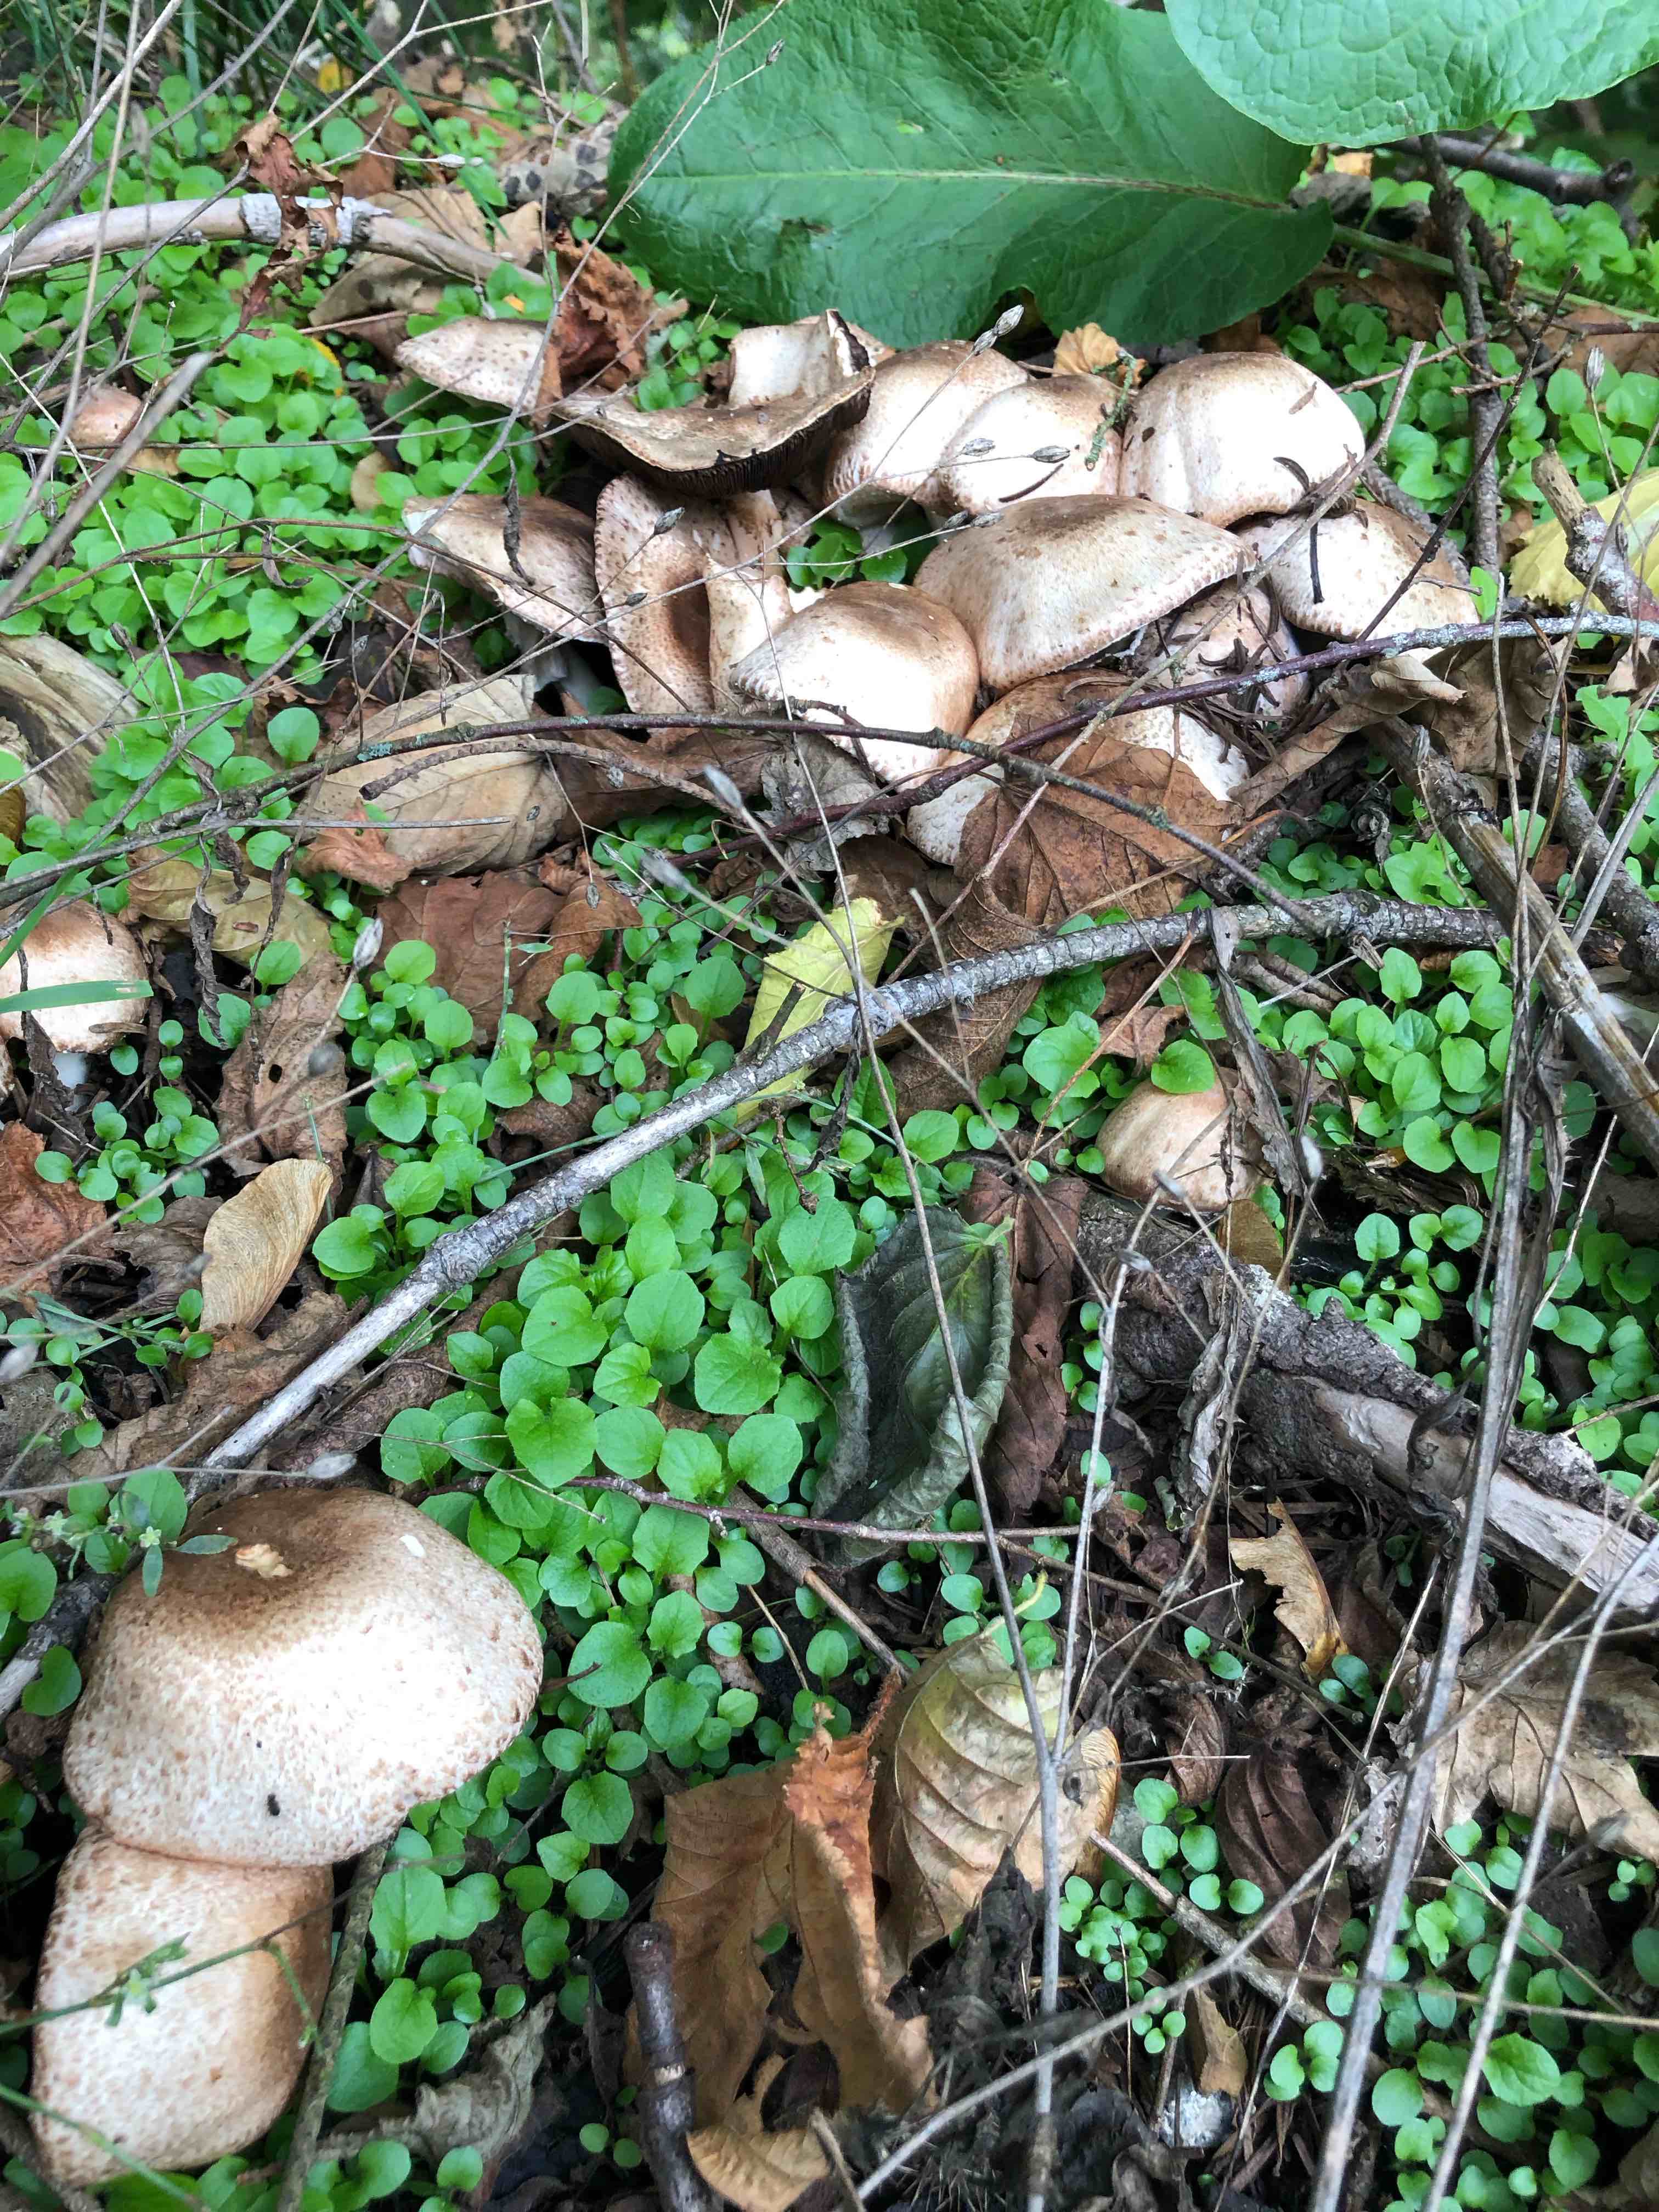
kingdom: Fungi
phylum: Basidiomycota
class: Agaricomycetes
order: Agaricales
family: Agaricaceae
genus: Agaricus
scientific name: Agaricus
